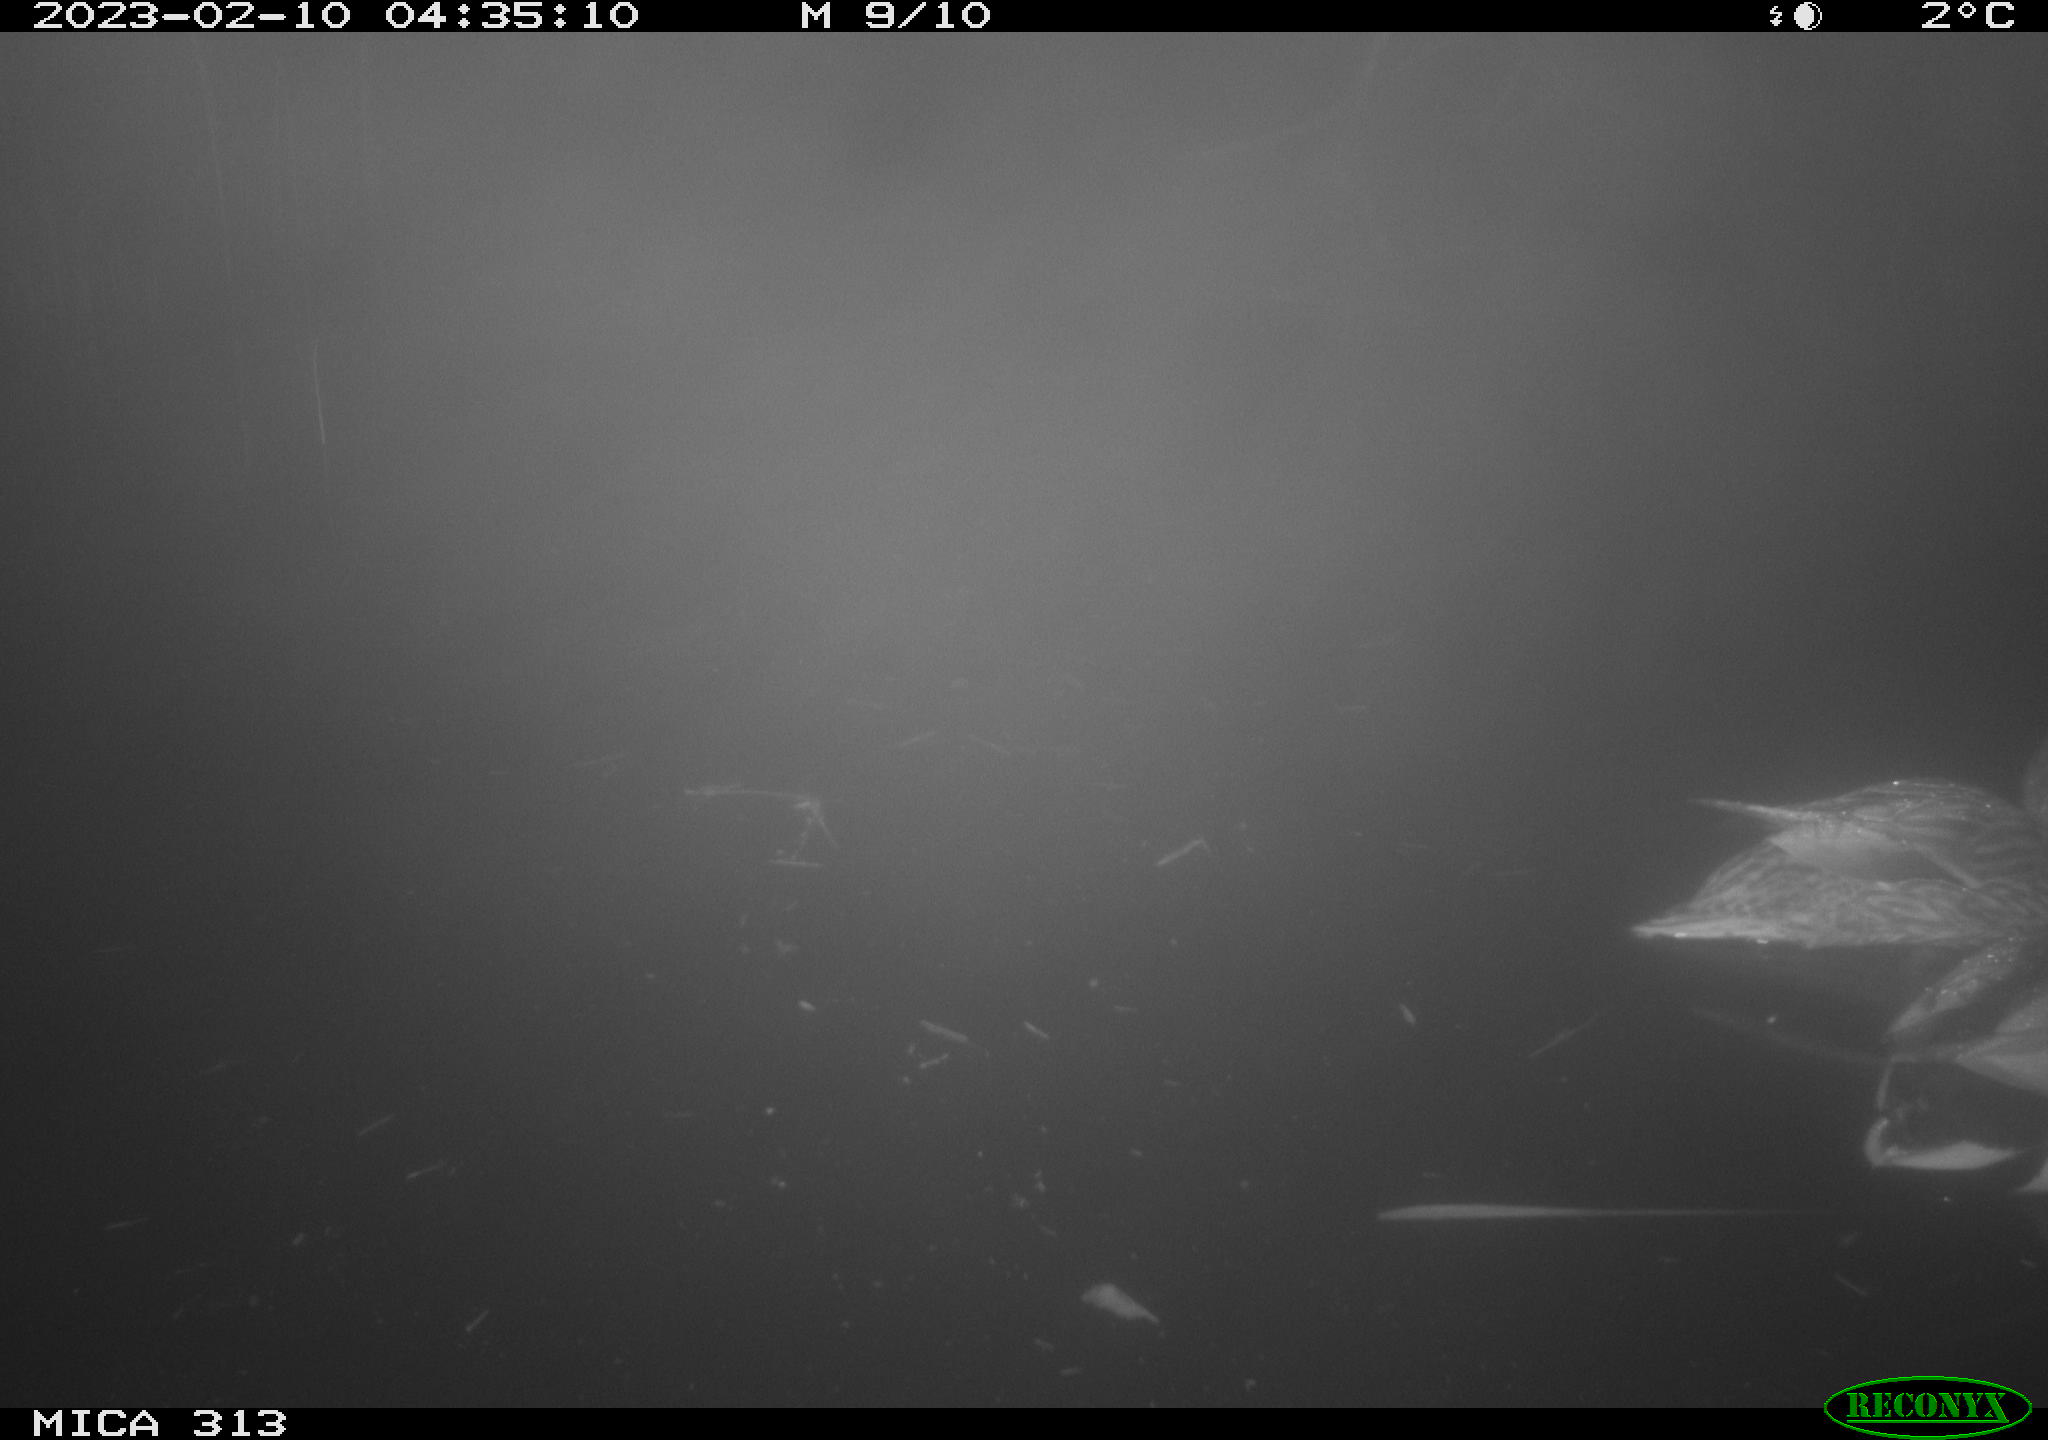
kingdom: Animalia
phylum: Chordata
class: Aves
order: Anseriformes
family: Anatidae
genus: Anas
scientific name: Anas
